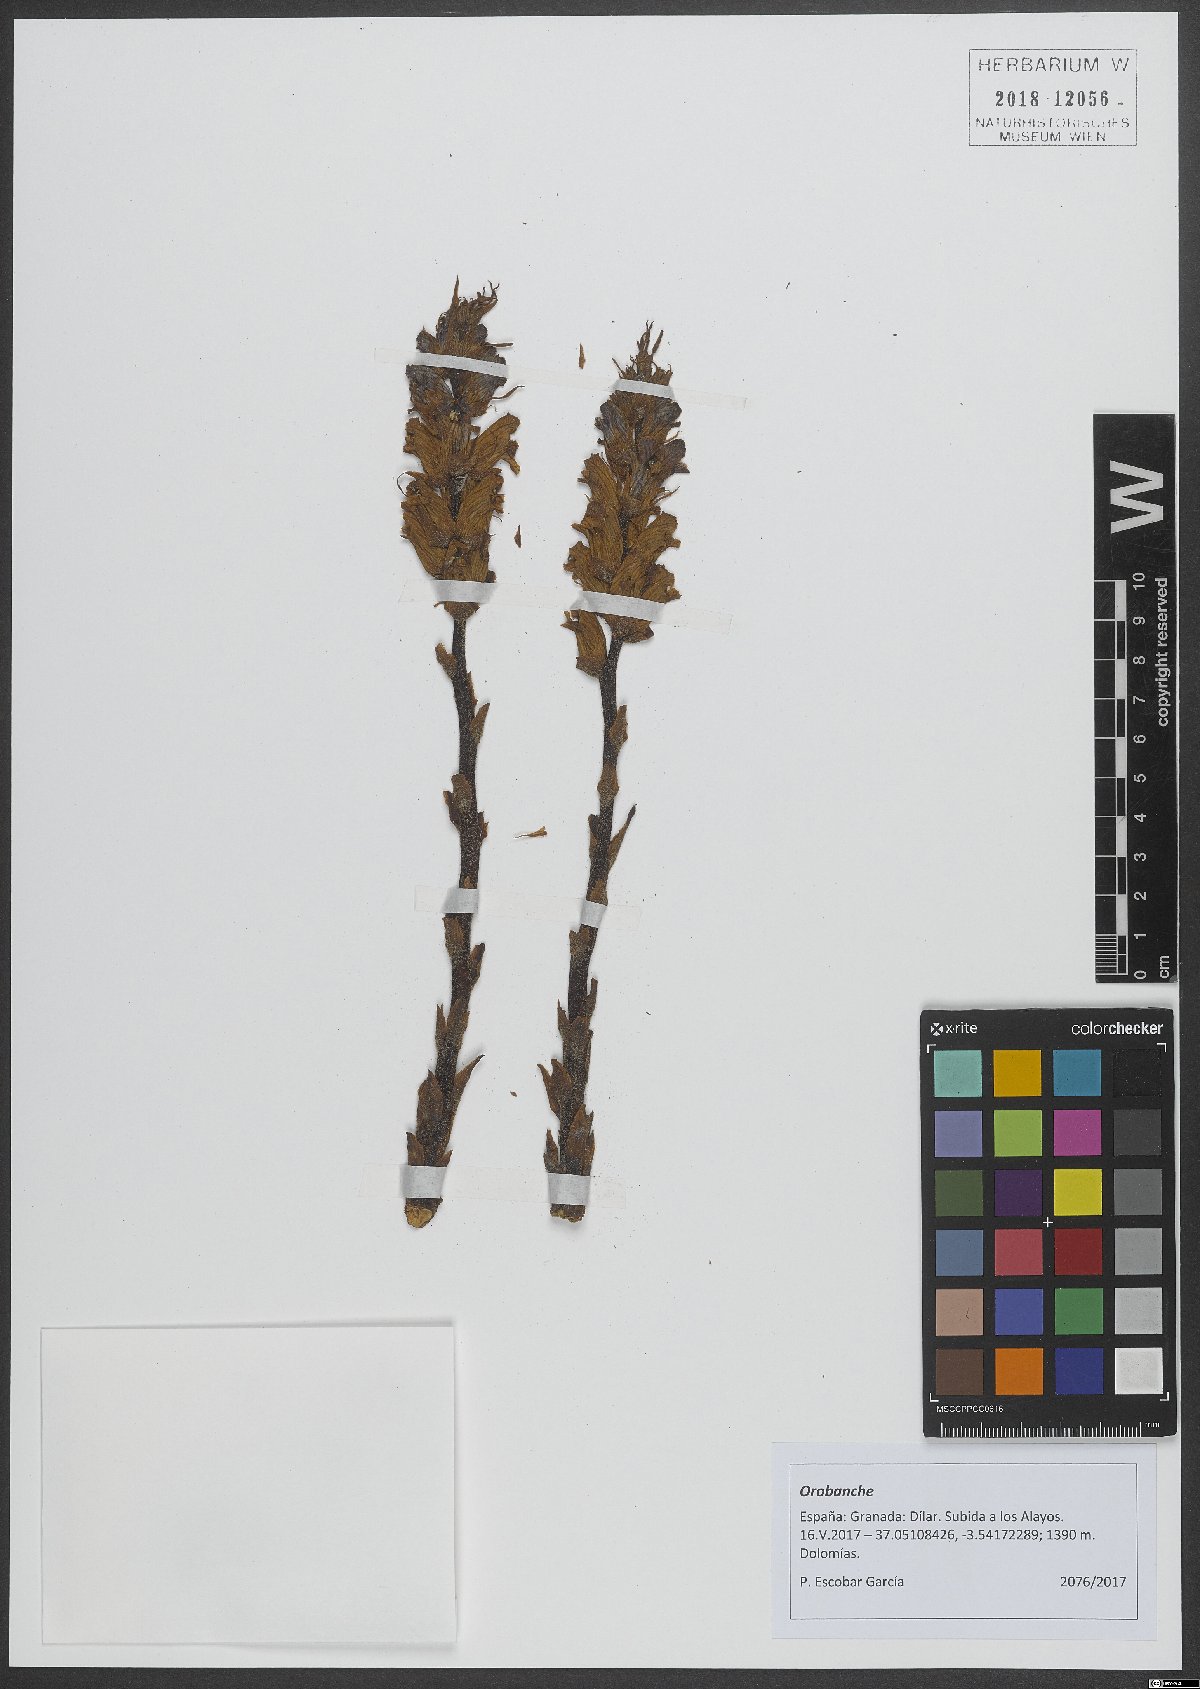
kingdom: Plantae
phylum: Tracheophyta
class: Magnoliopsida
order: Lamiales
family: Orobanchaceae
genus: Orobanche
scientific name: Orobanche
